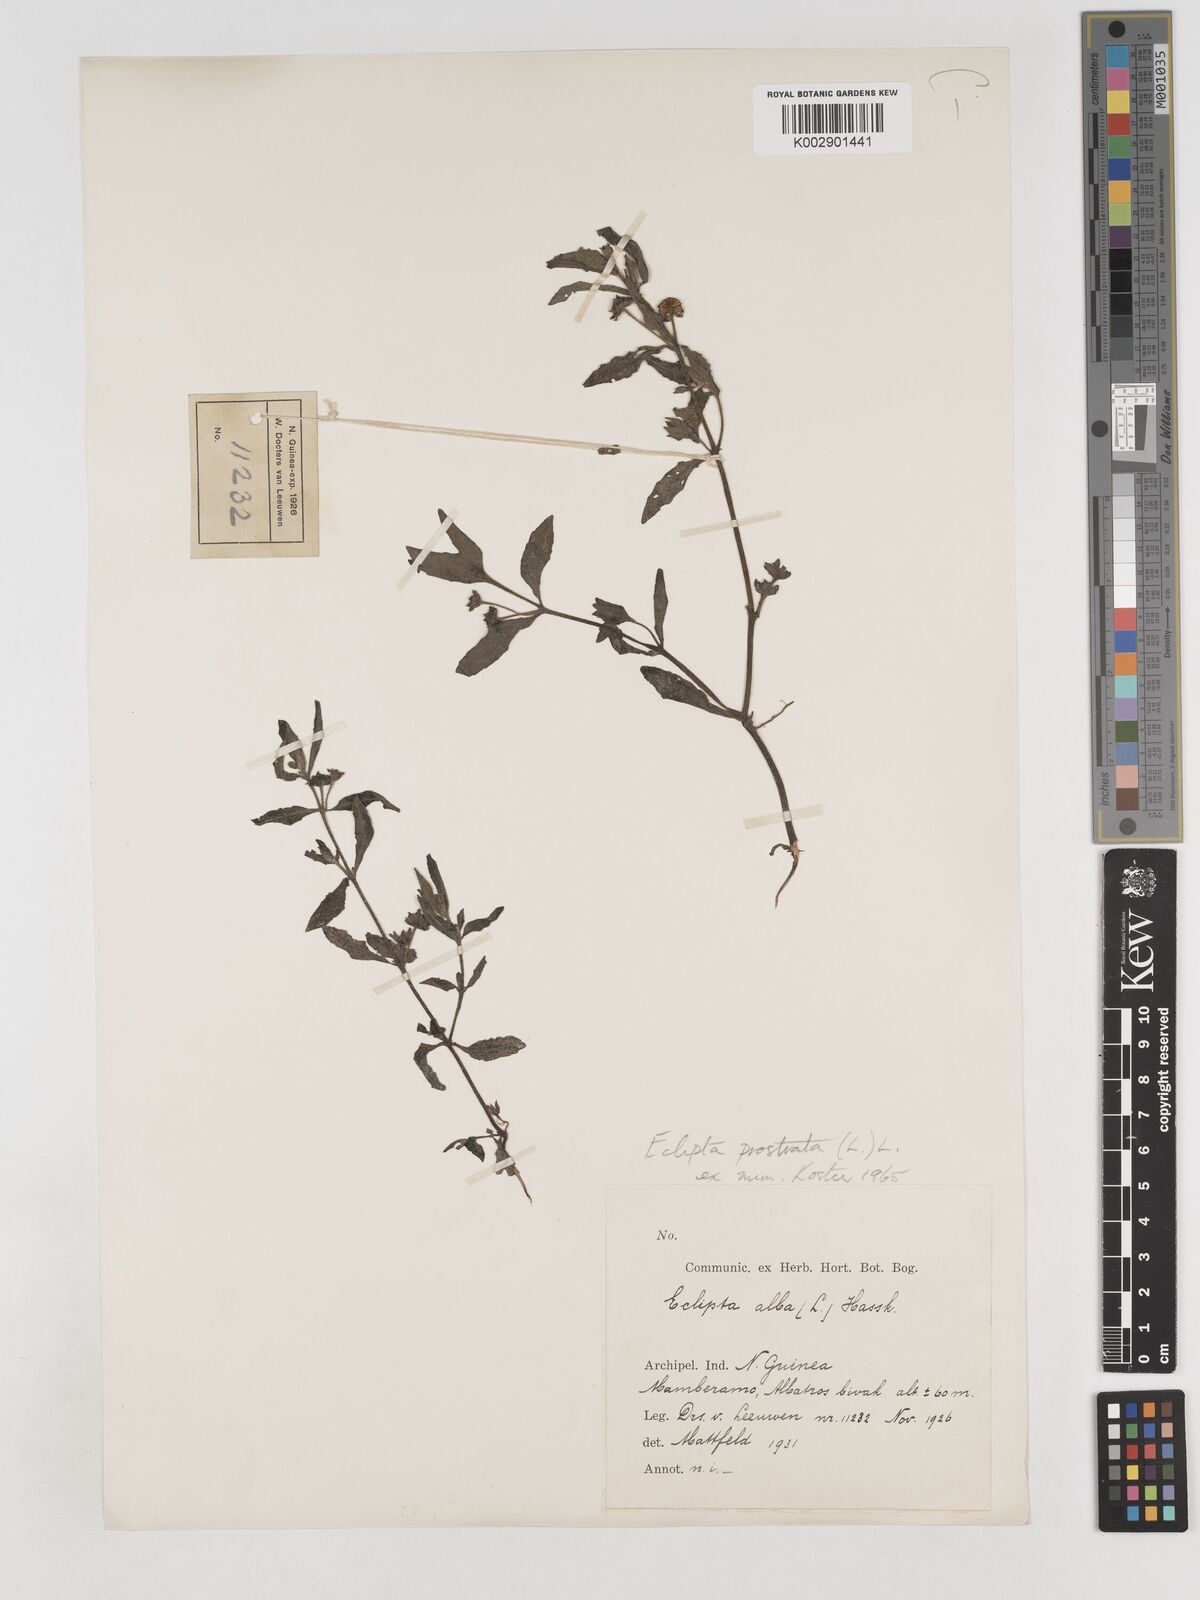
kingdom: Plantae
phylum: Tracheophyta
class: Magnoliopsida
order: Asterales
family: Asteraceae
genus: Eclipta
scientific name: Eclipta prostrata
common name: False daisy
